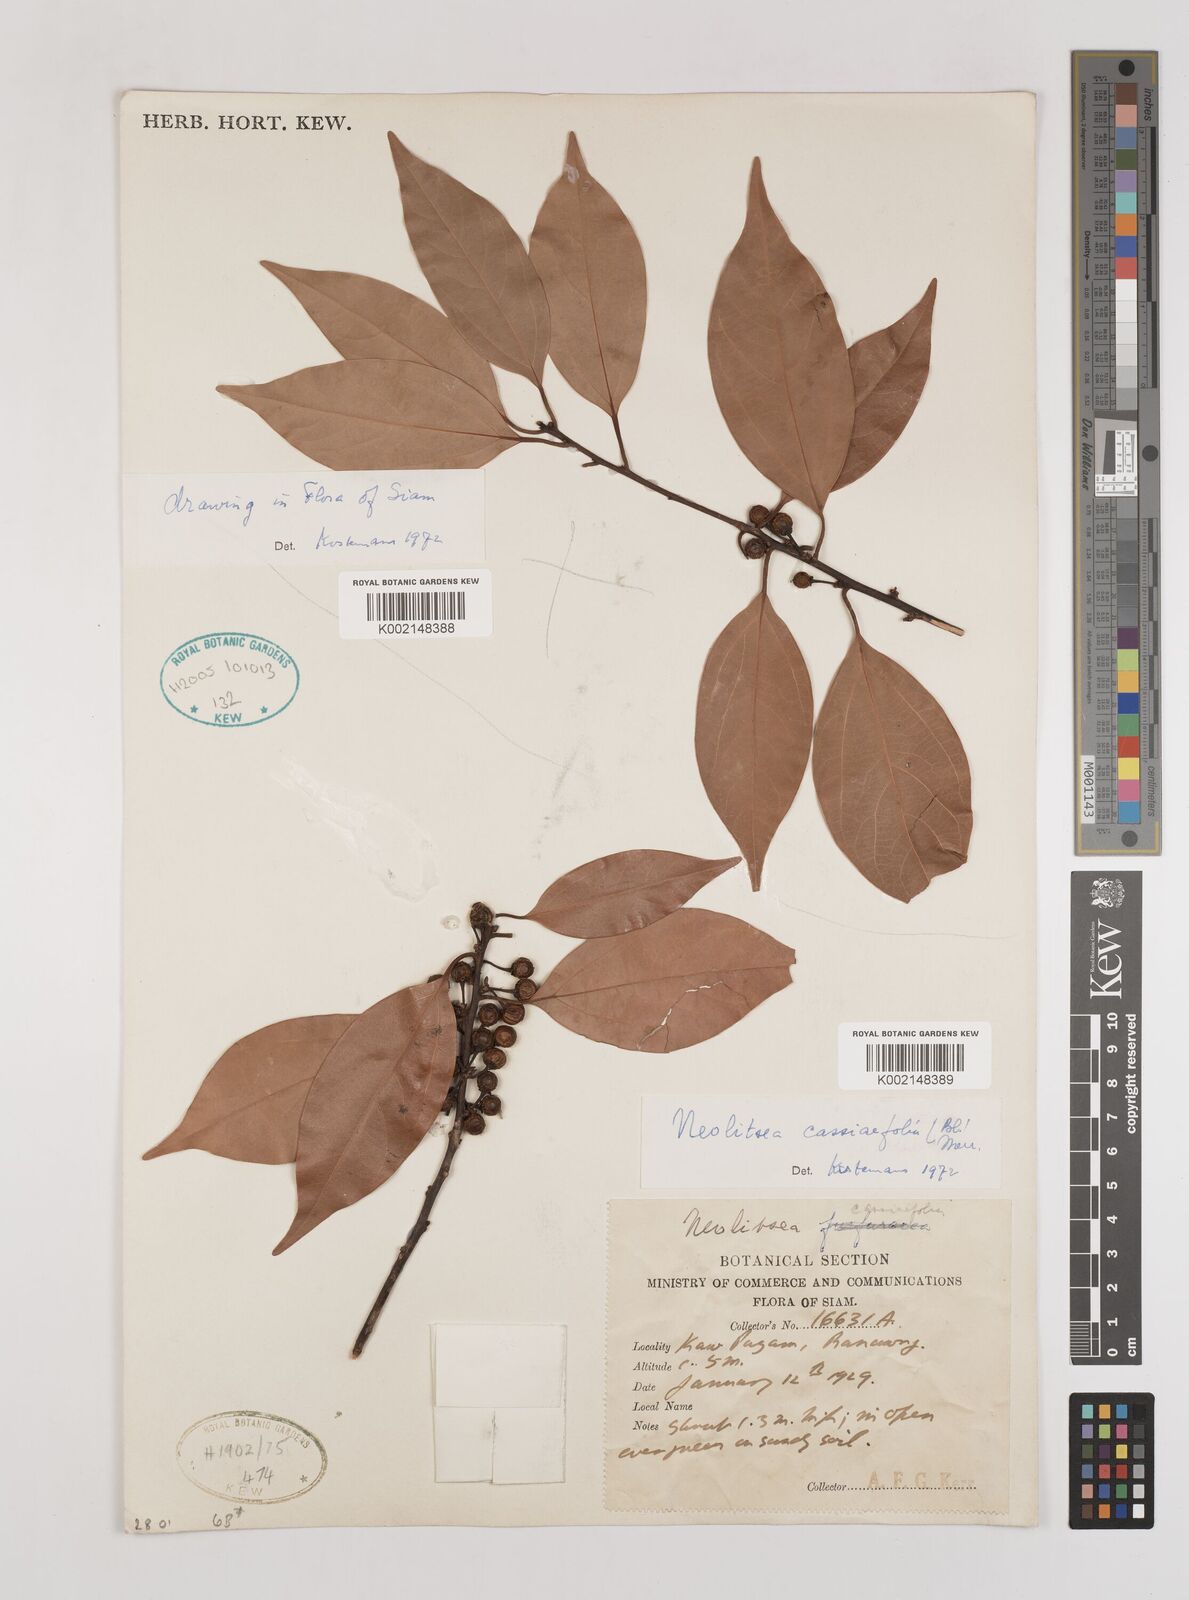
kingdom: Plantae
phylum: Tracheophyta
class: Magnoliopsida
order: Laurales
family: Lauraceae
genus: Neolitsea
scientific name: Neolitsea cassiifolia
